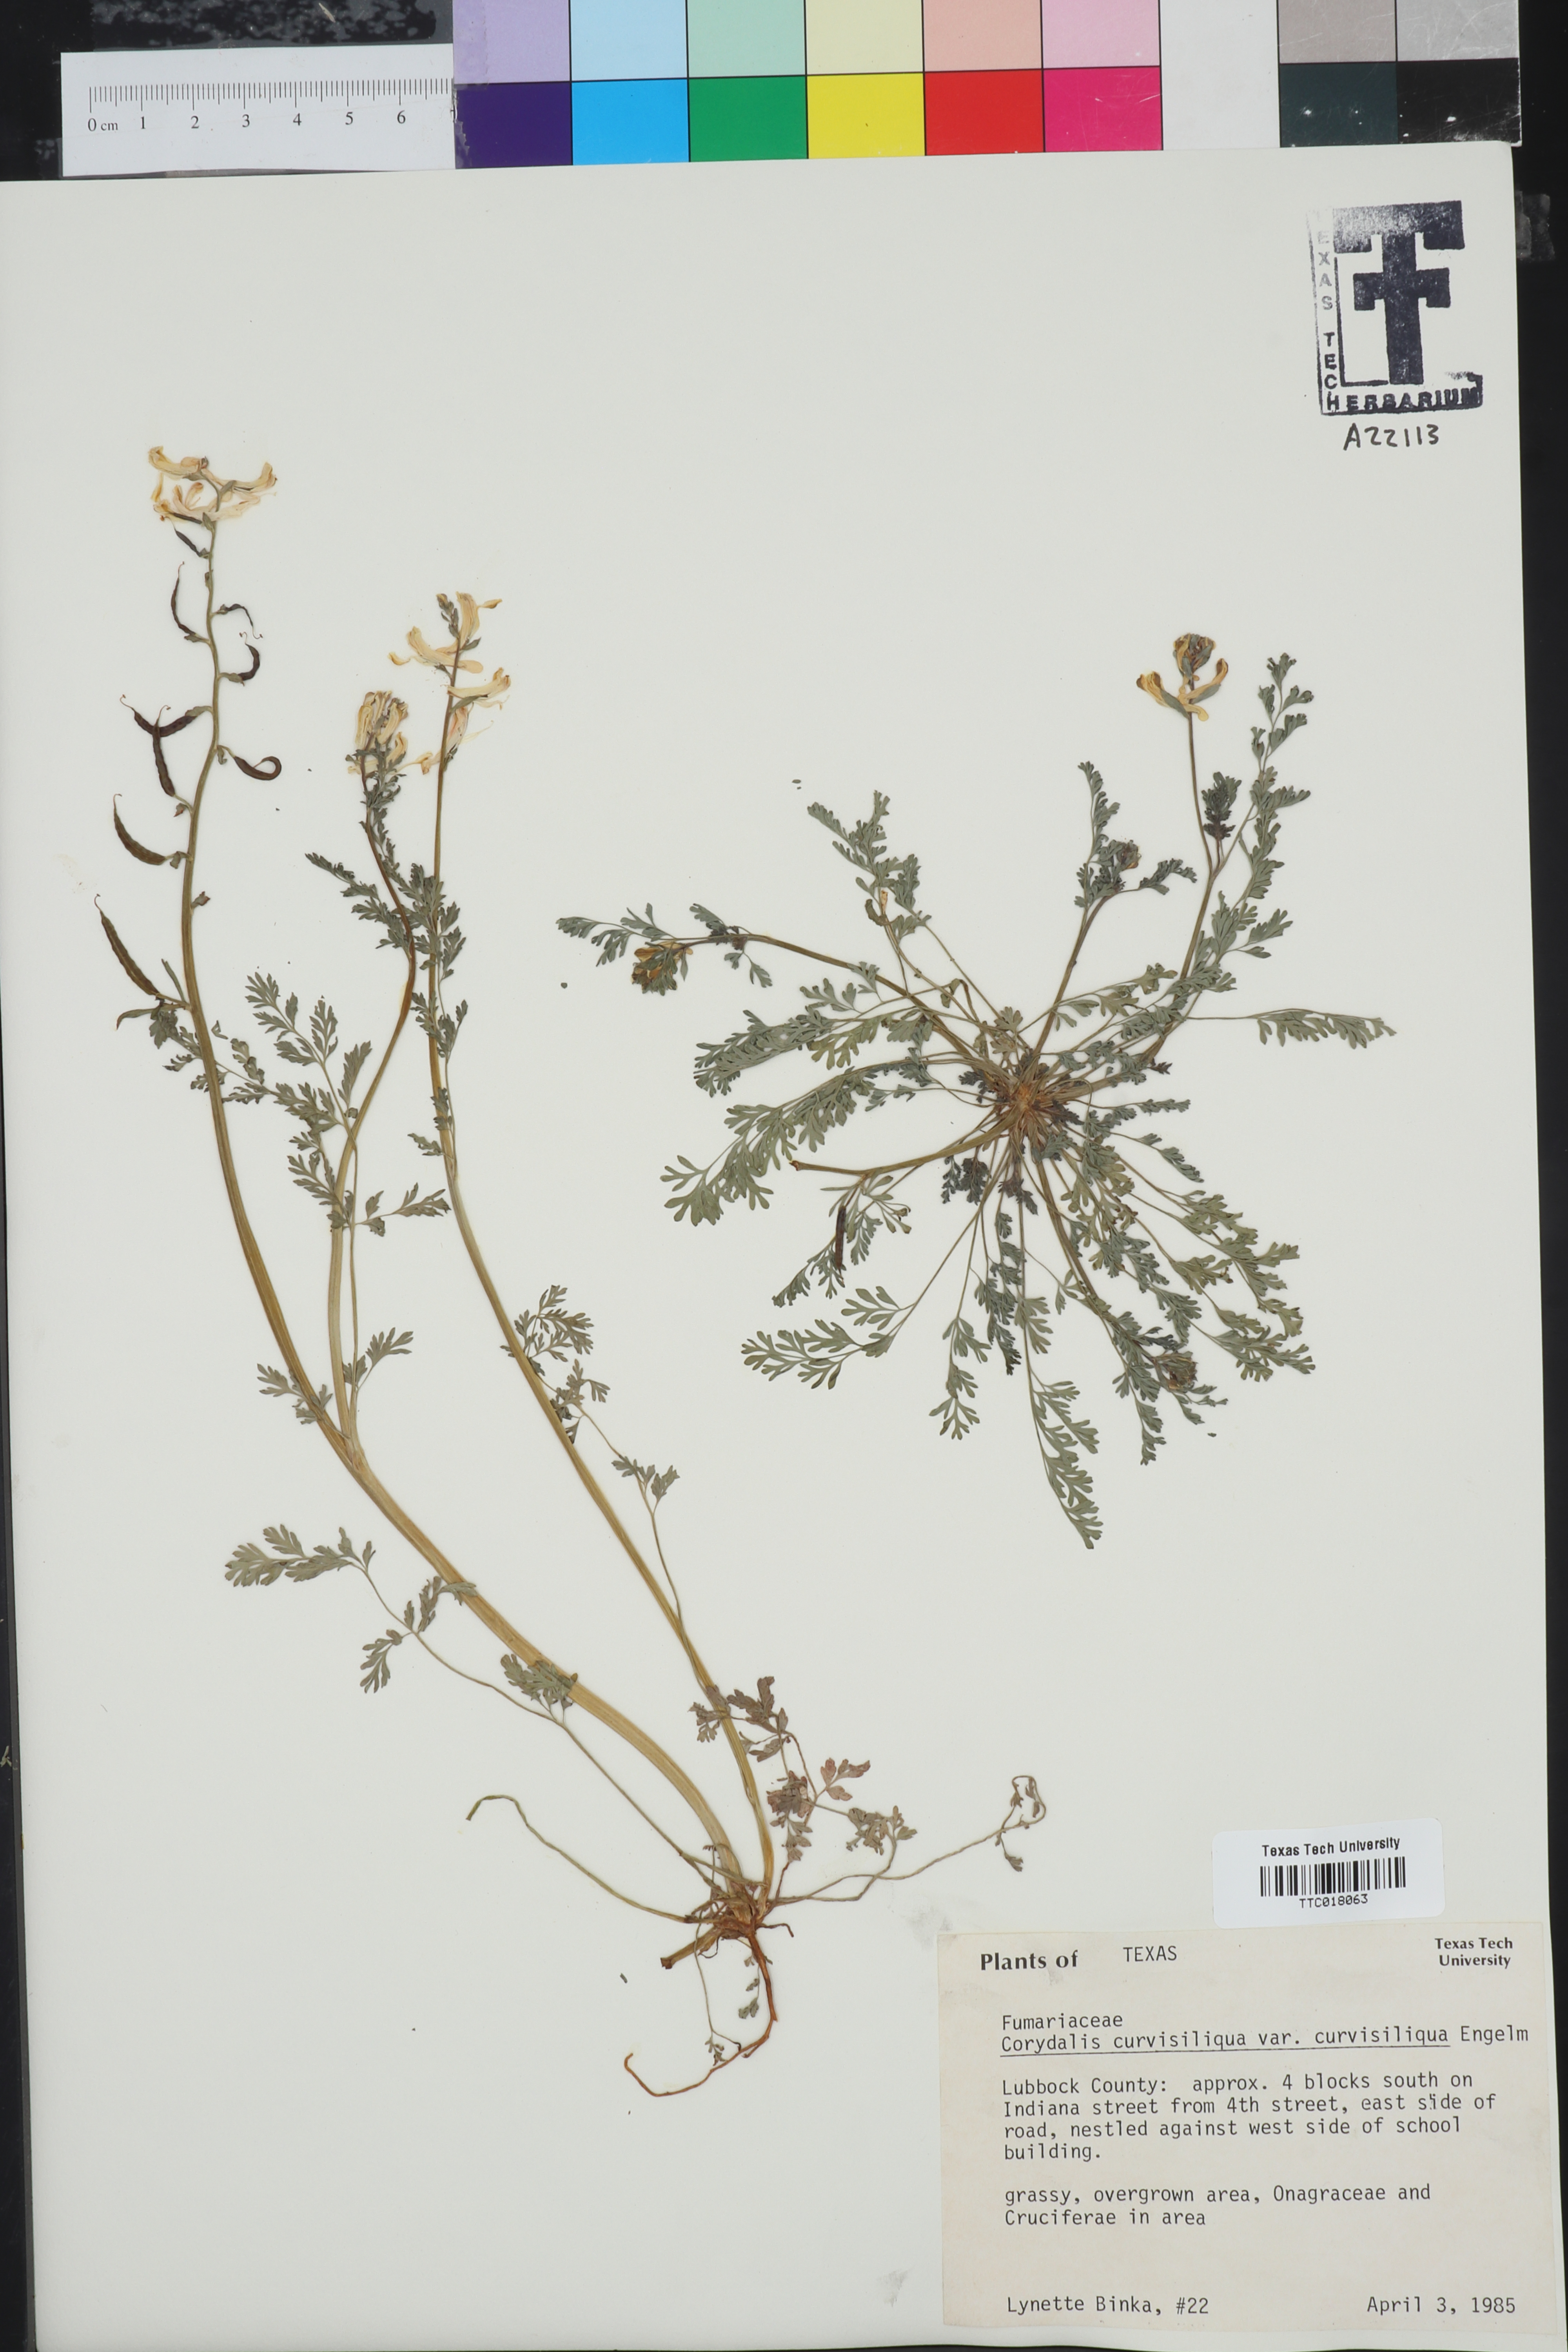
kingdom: Plantae
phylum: Tracheophyta
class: Magnoliopsida
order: Ranunculales
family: Papaveraceae
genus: Corydalis
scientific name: Corydalis curvisiliqua
